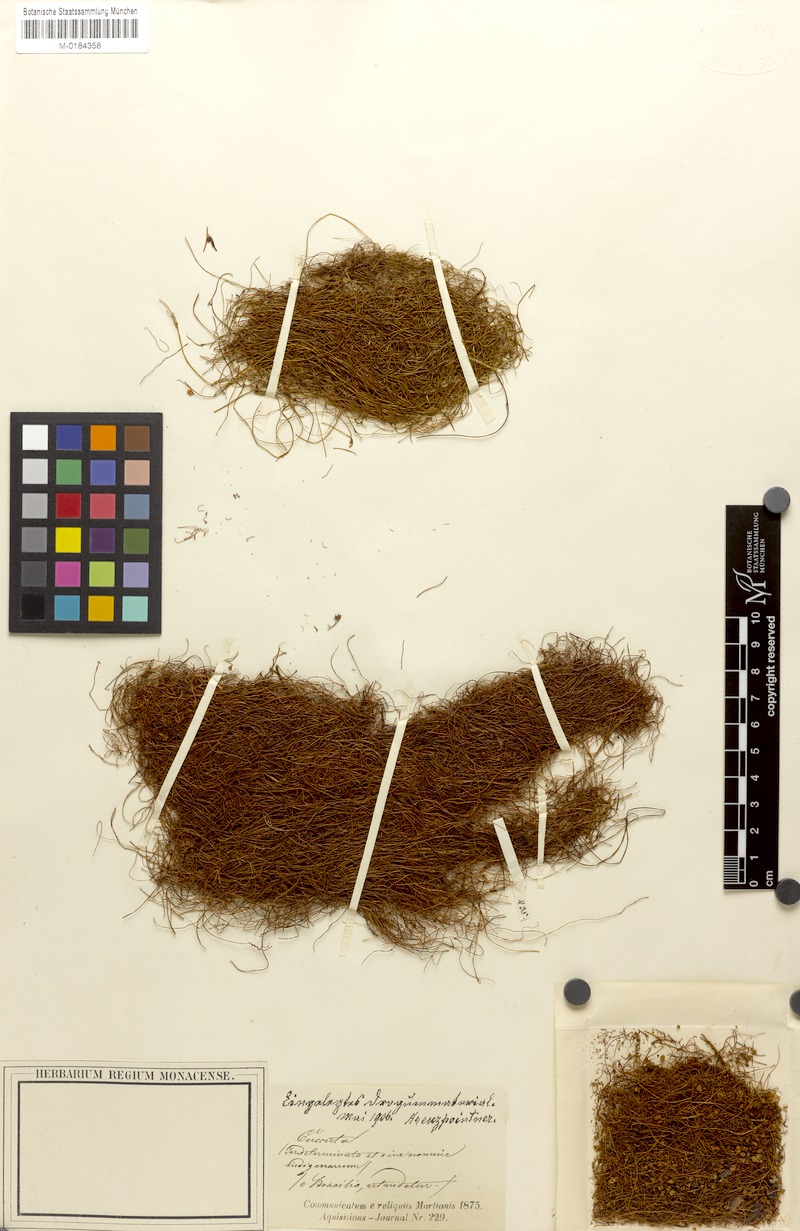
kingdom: Plantae
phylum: Tracheophyta
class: Magnoliopsida
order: Solanales
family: Convolvulaceae
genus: Cuscuta
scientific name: Cuscuta xanthochortos
